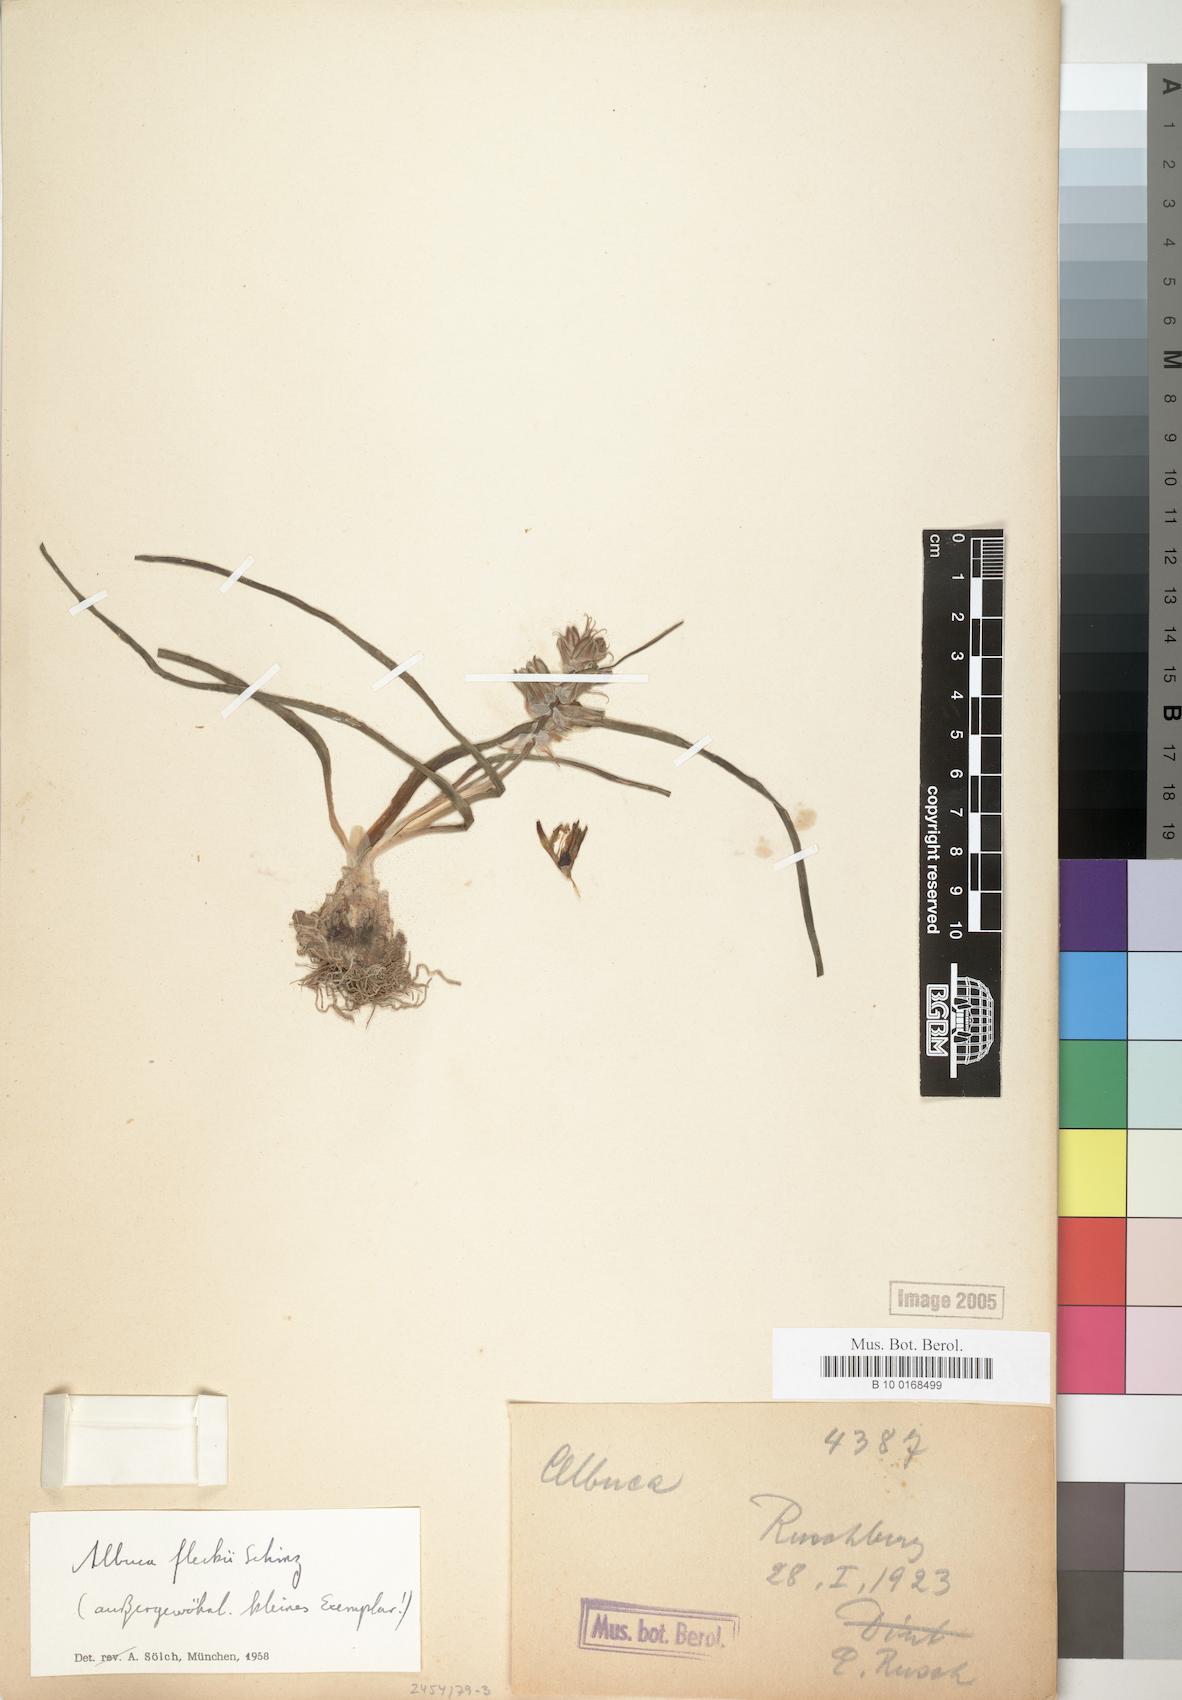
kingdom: Plantae
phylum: Tracheophyta
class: Liliopsida
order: Asparagales
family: Asparagaceae
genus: Albuca
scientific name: Albuca abyssinica
